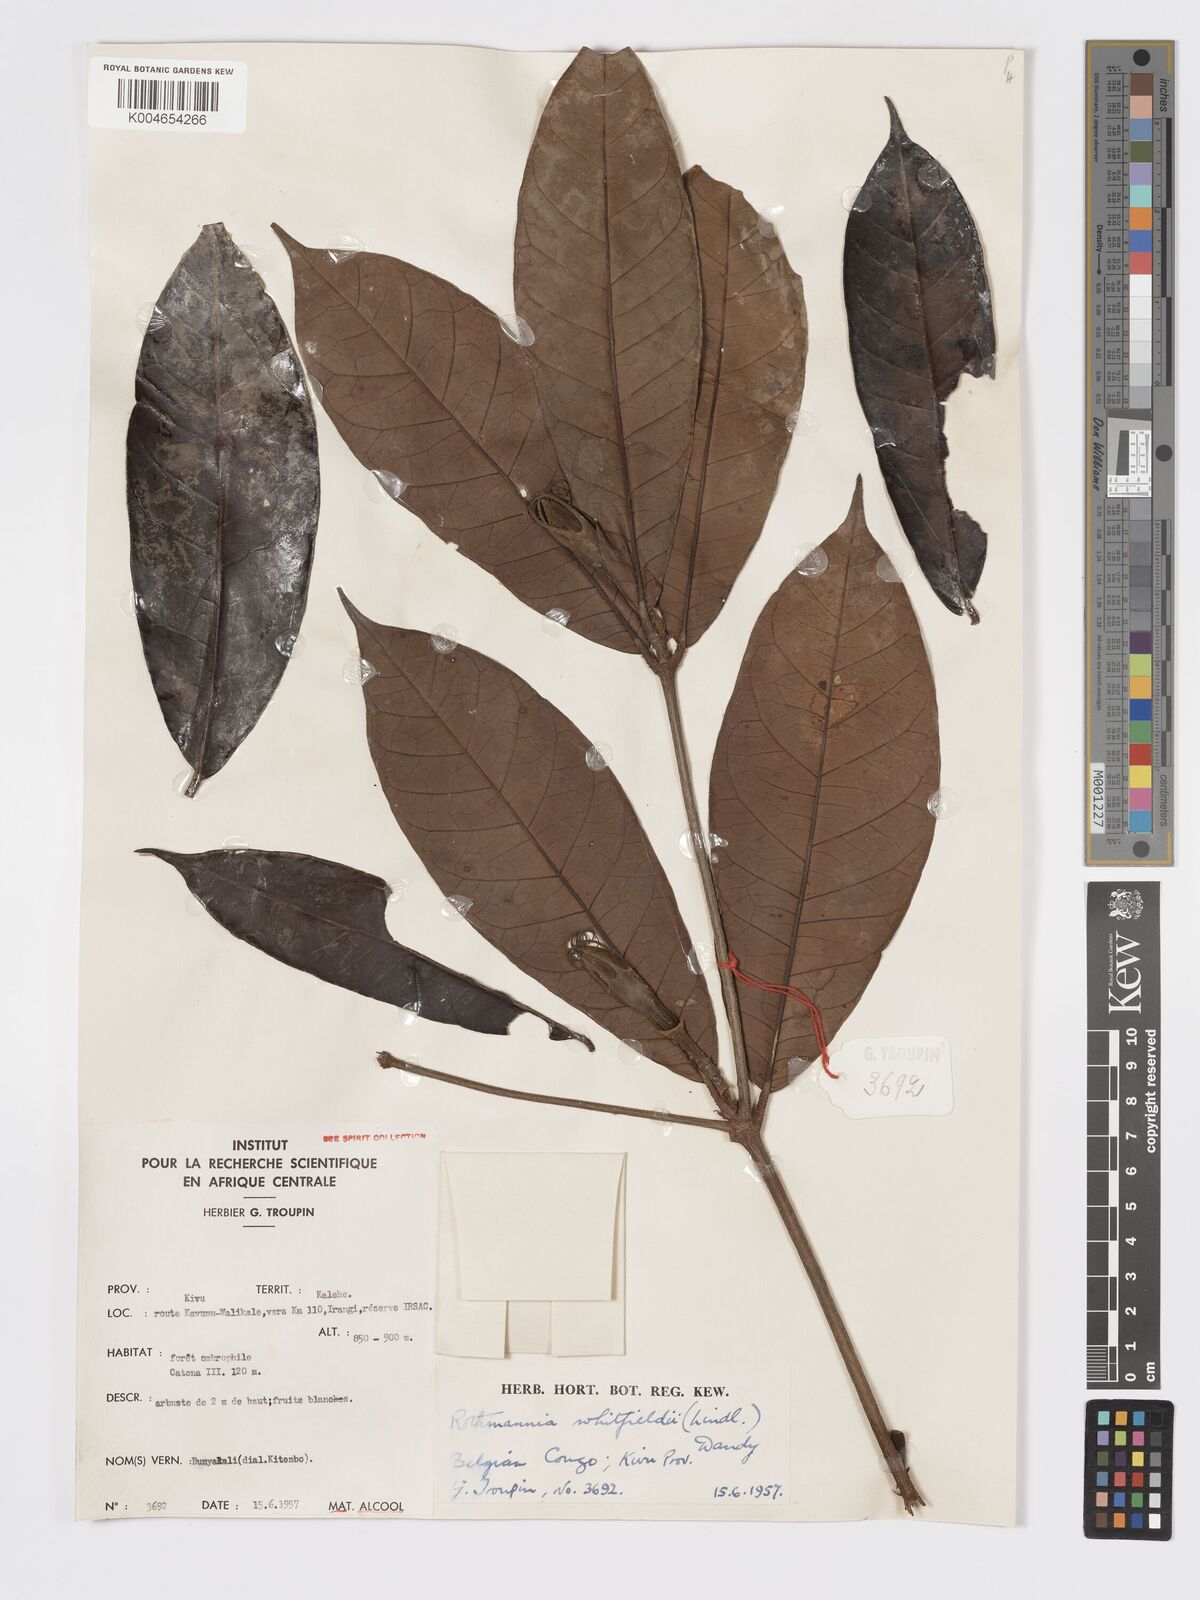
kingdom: Plantae
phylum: Tracheophyta
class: Magnoliopsida
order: Gentianales
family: Rubiaceae
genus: Rothmannia
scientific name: Rothmannia whitfieldii
